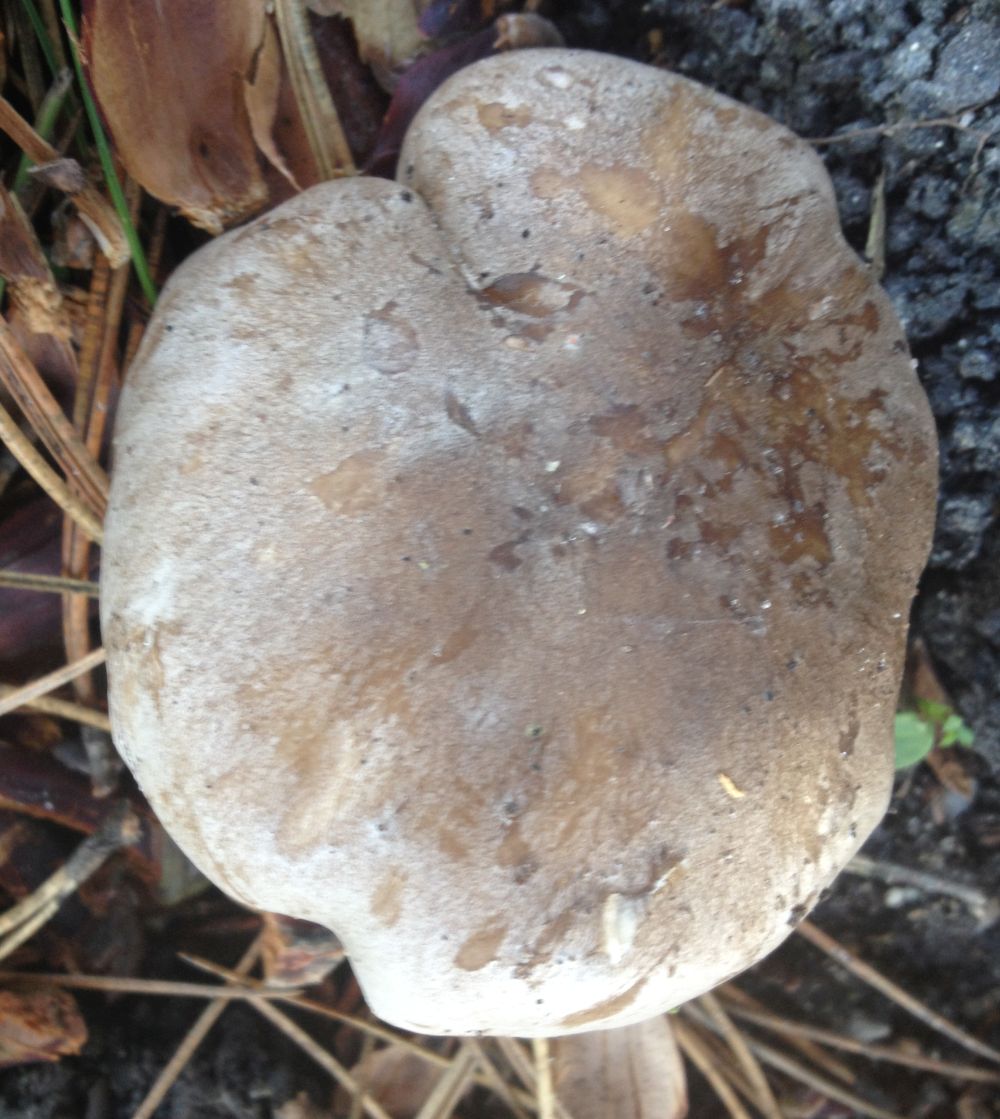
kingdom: Fungi
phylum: Basidiomycota
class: Agaricomycetes
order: Agaricales
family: Tricholomataceae
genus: Clitocybe
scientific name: Clitocybe nebularis
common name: tåge-tragthat
